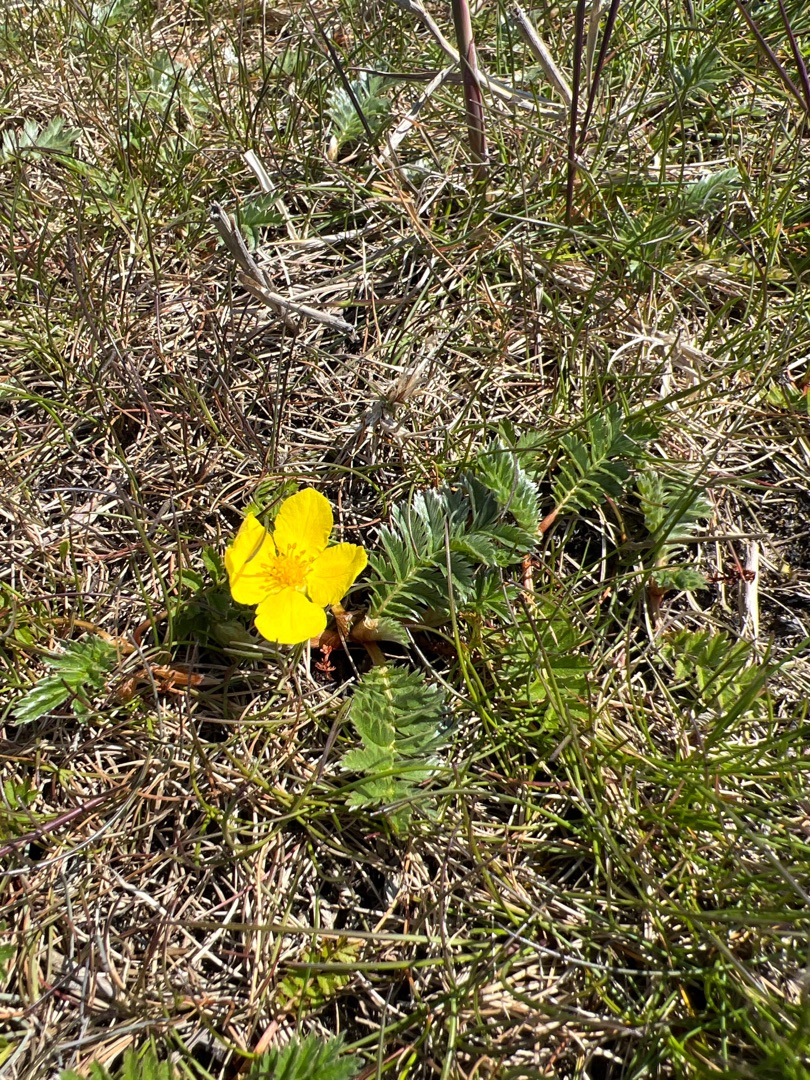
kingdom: Plantae
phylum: Tracheophyta
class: Magnoliopsida
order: Rosales
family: Rosaceae
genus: Argentina
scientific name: Argentina anserina
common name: Gåsepotentil
